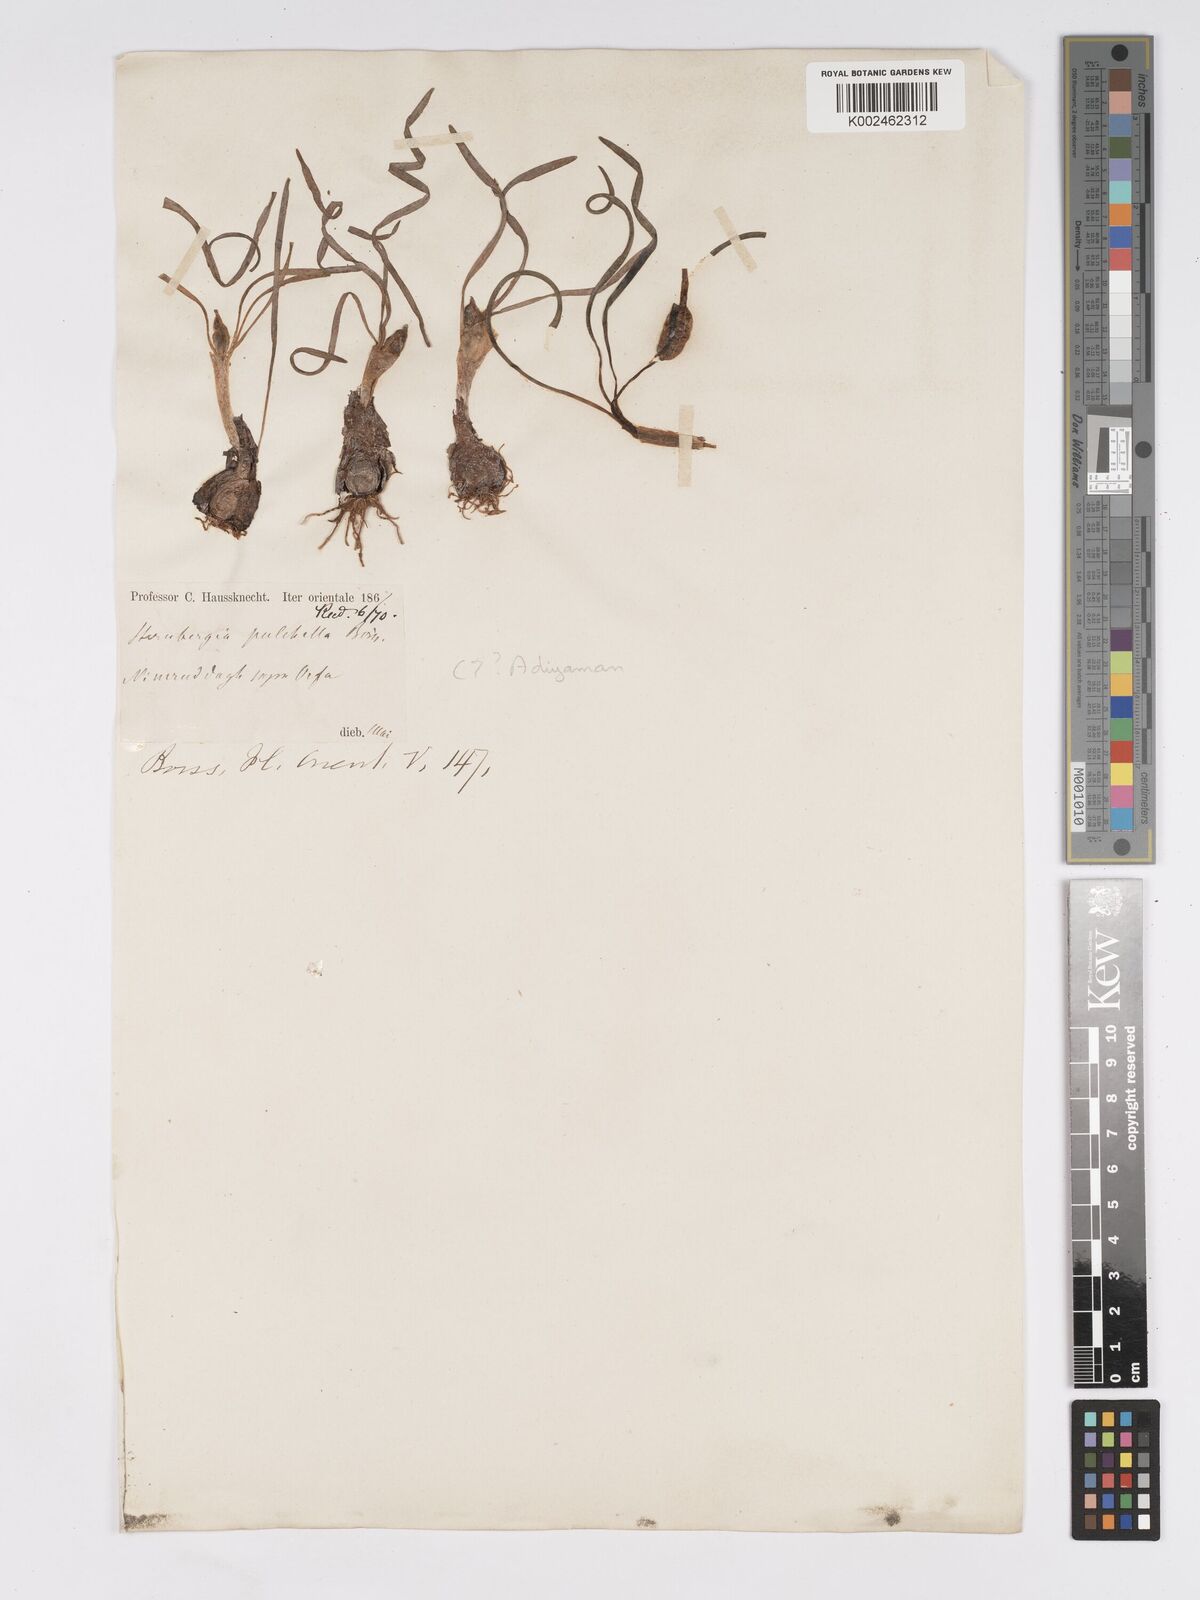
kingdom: Plantae
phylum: Tracheophyta
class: Liliopsida
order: Asparagales
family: Amaryllidaceae
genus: Sternbergia
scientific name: Sternbergia colchiciflora
